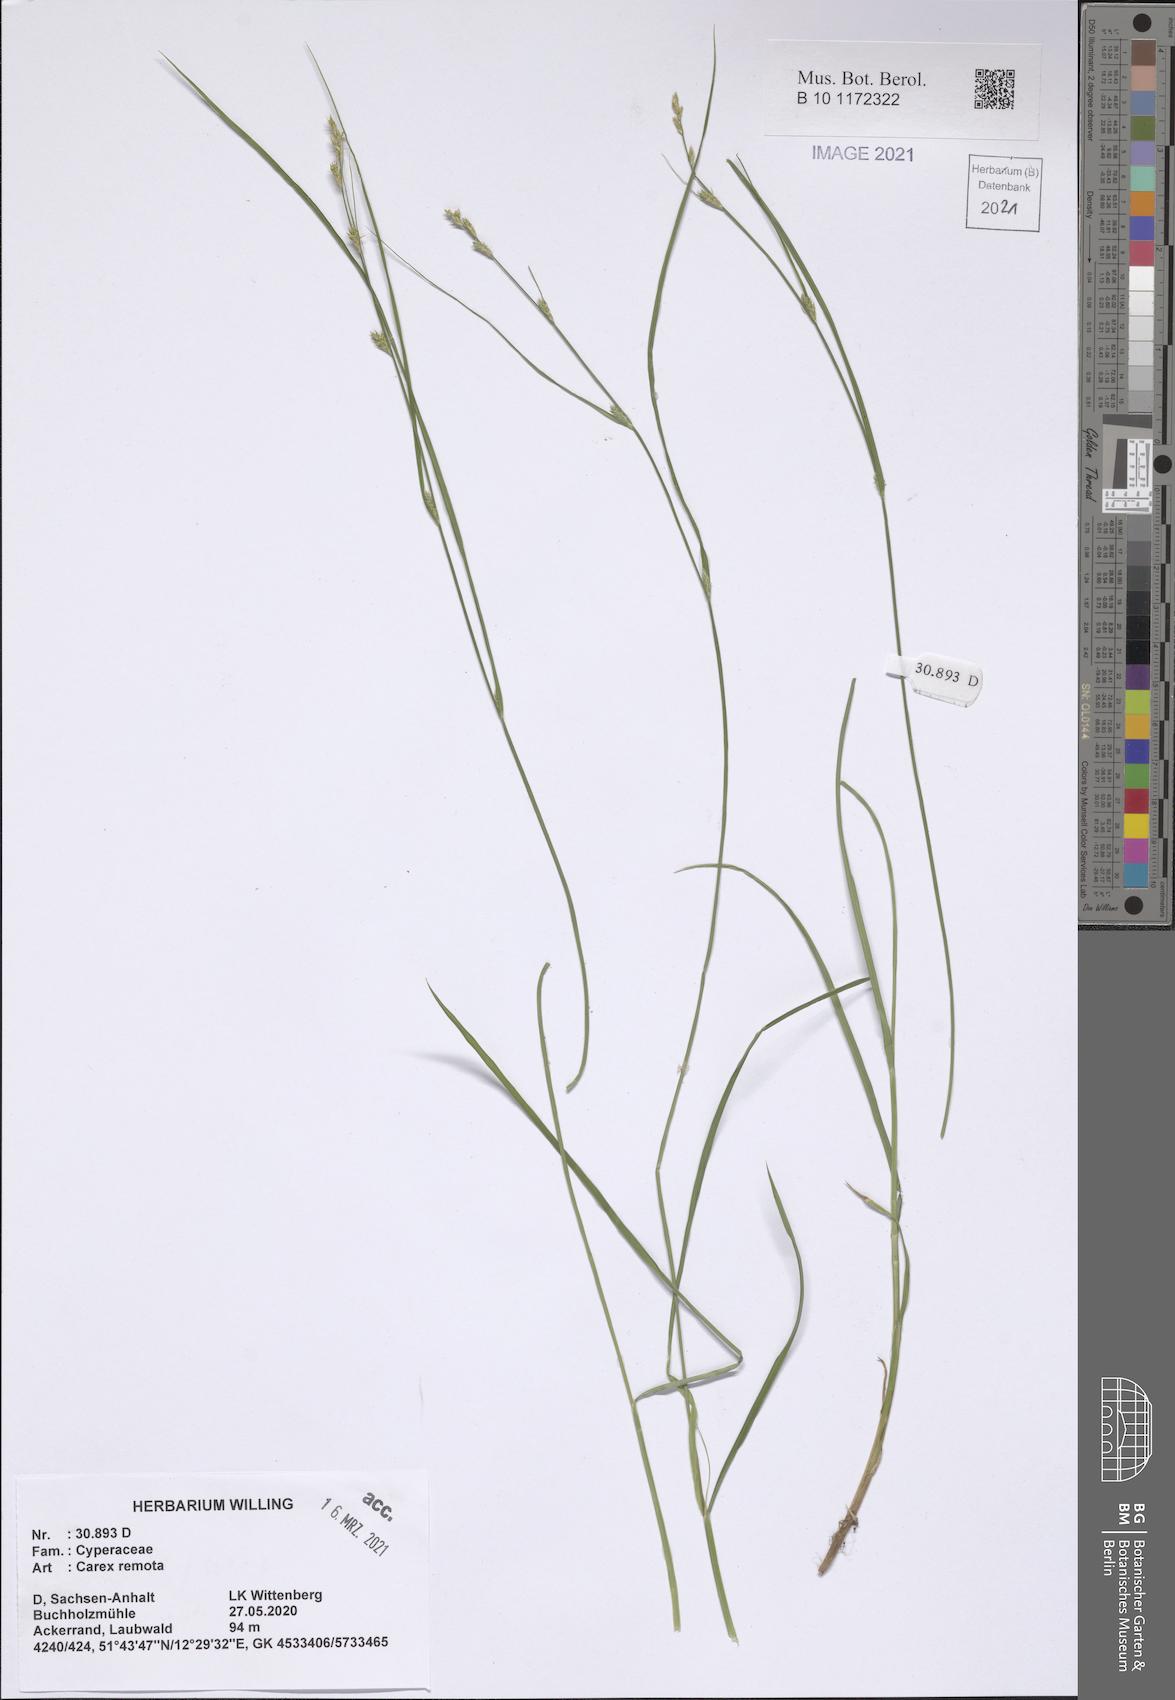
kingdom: Plantae
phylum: Tracheophyta
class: Liliopsida
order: Poales
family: Cyperaceae
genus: Carex
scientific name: Carex remota
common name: Remote sedge
